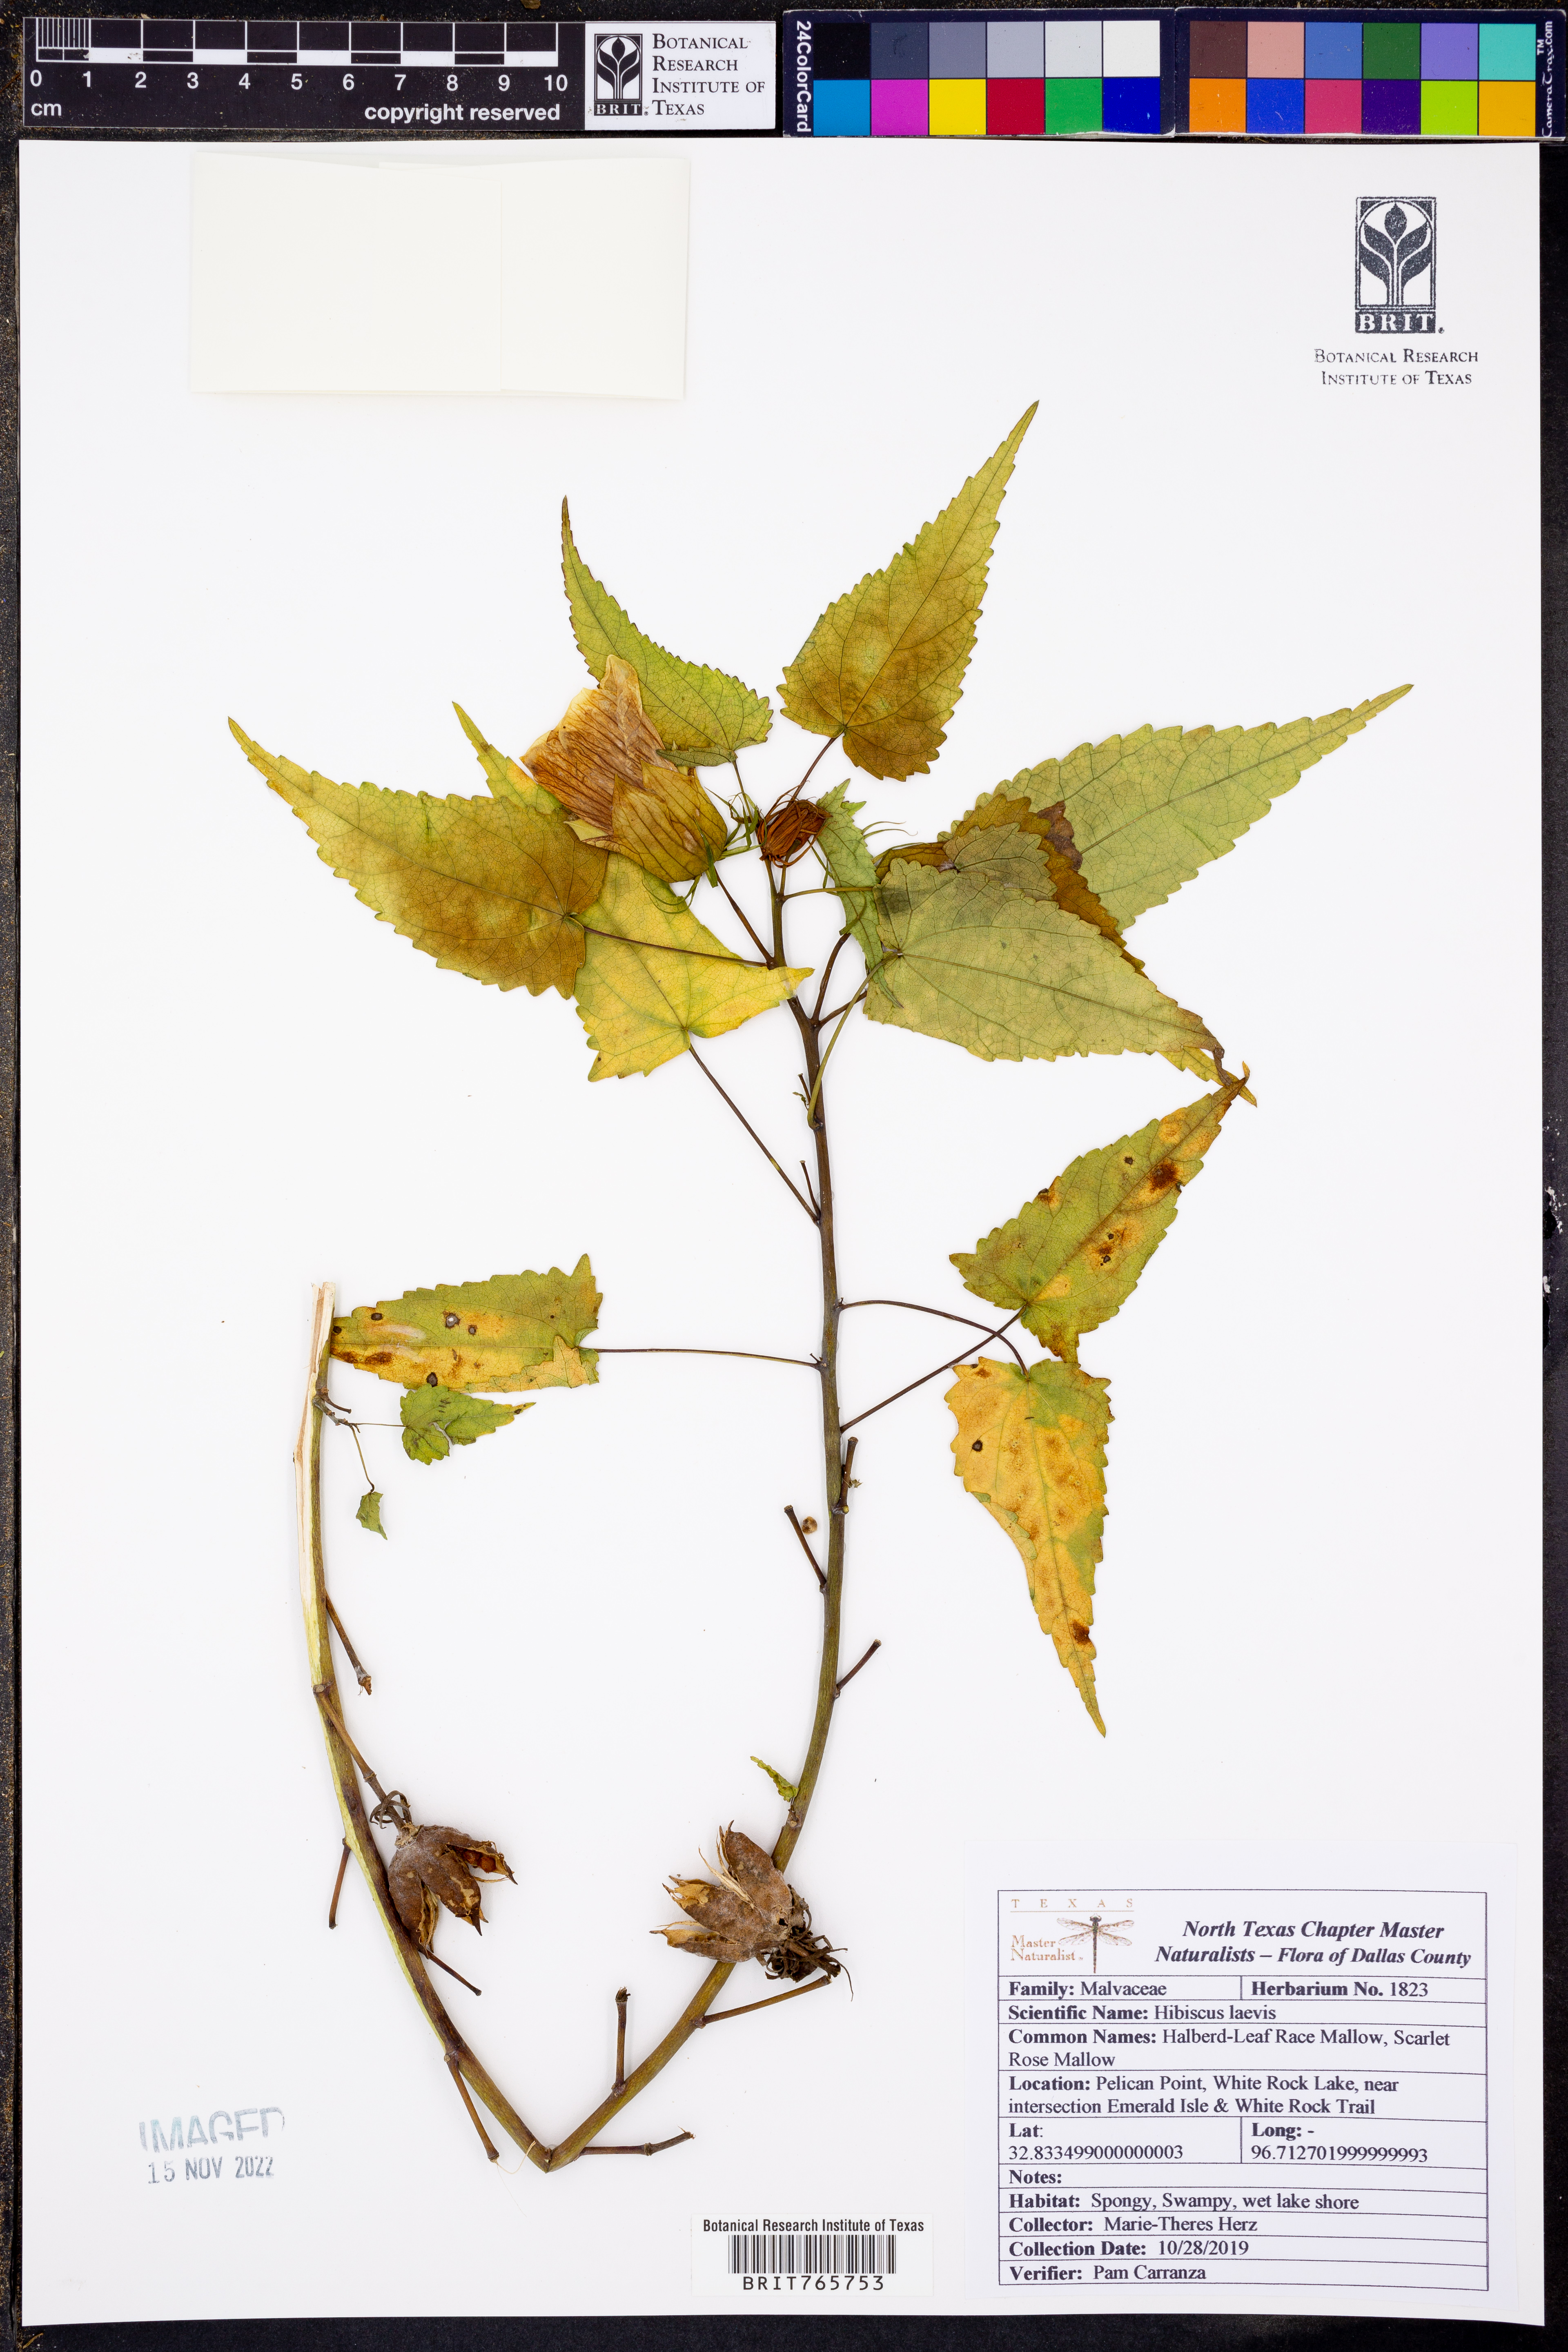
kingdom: Plantae
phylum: Tracheophyta
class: Magnoliopsida
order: Malvales
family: Malvaceae
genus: Hibiscus
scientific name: Hibiscus laevis
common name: Scarlet rose-mallow
